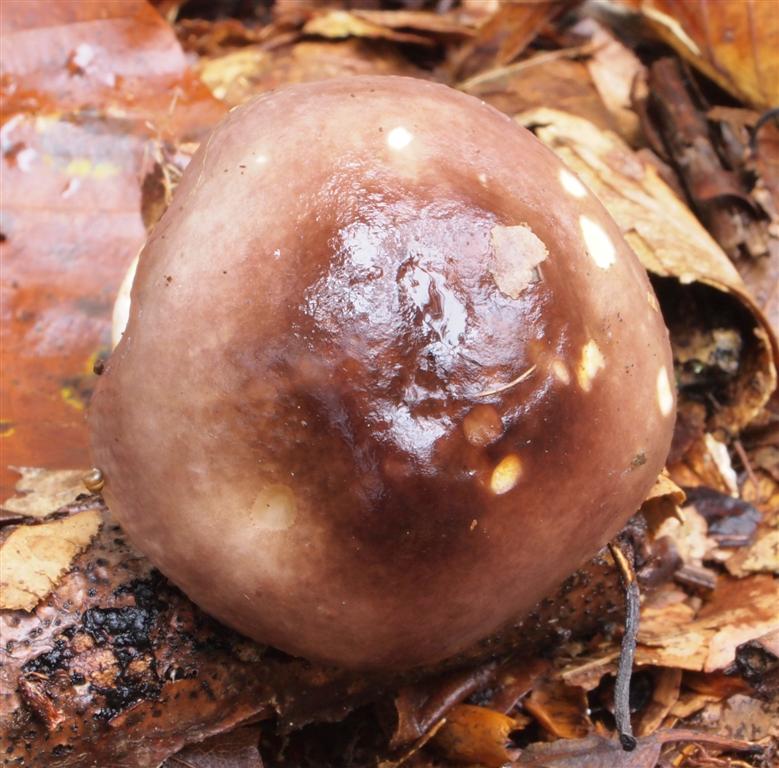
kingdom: Fungi
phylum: Basidiomycota
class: Agaricomycetes
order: Russulales
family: Russulaceae
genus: Russula
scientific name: Russula puellaris
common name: gulstokket skørhat
